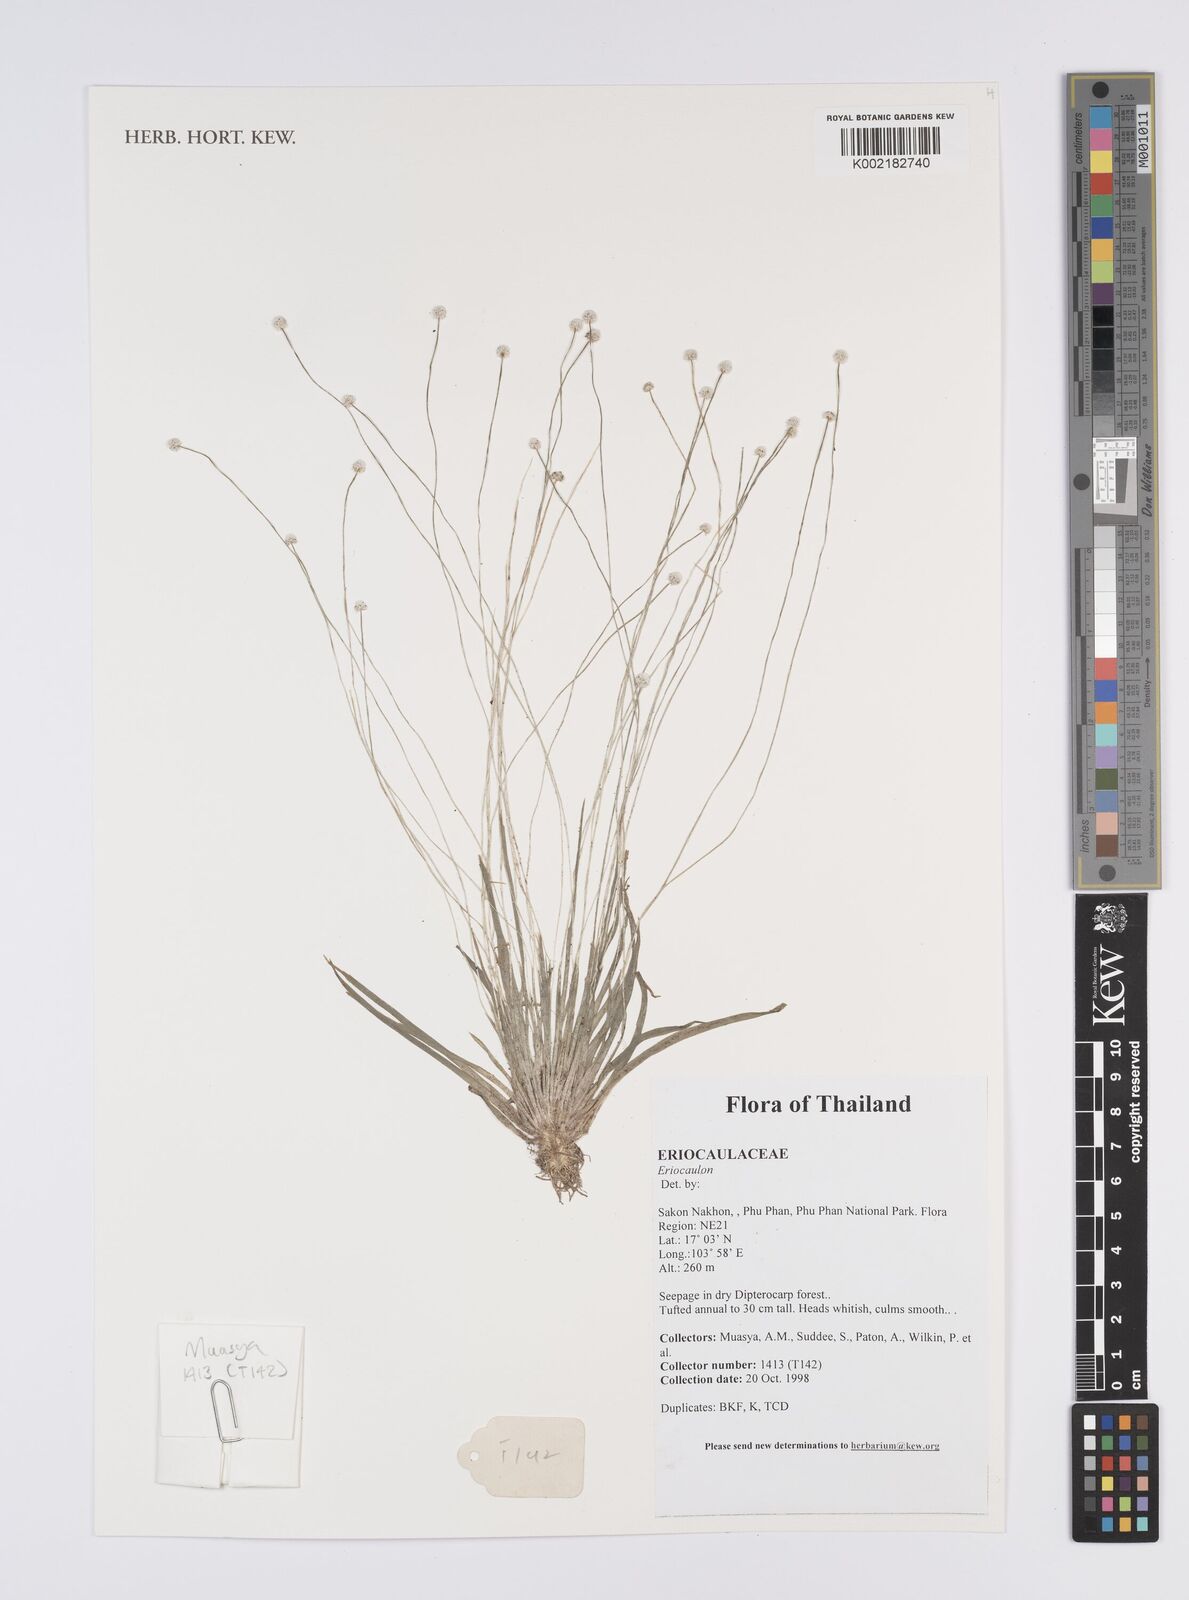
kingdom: Plantae
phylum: Tracheophyta
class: Liliopsida
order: Poales
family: Eriocaulaceae
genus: Eriocaulon
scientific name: Eriocaulon
